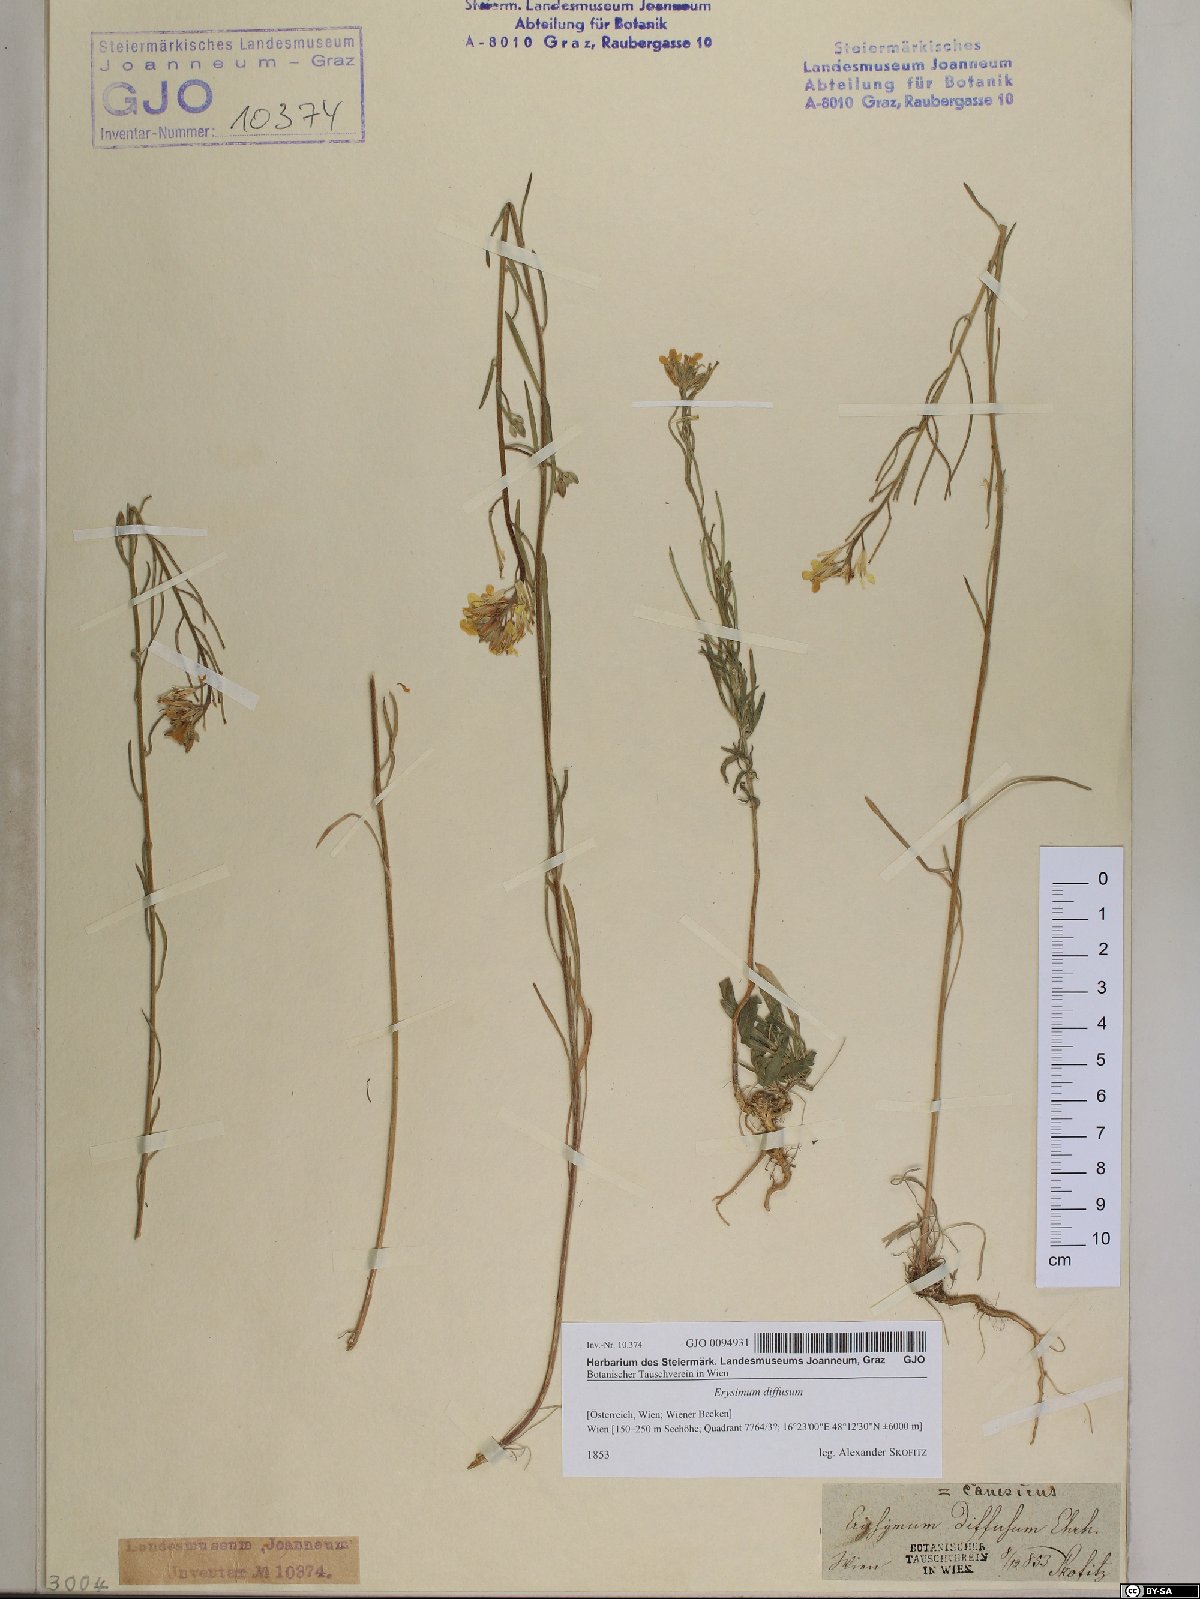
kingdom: Plantae
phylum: Tracheophyta
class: Magnoliopsida
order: Brassicales
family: Brassicaceae
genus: Erysimum
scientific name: Erysimum diffusum
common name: Diffuse wallflower
